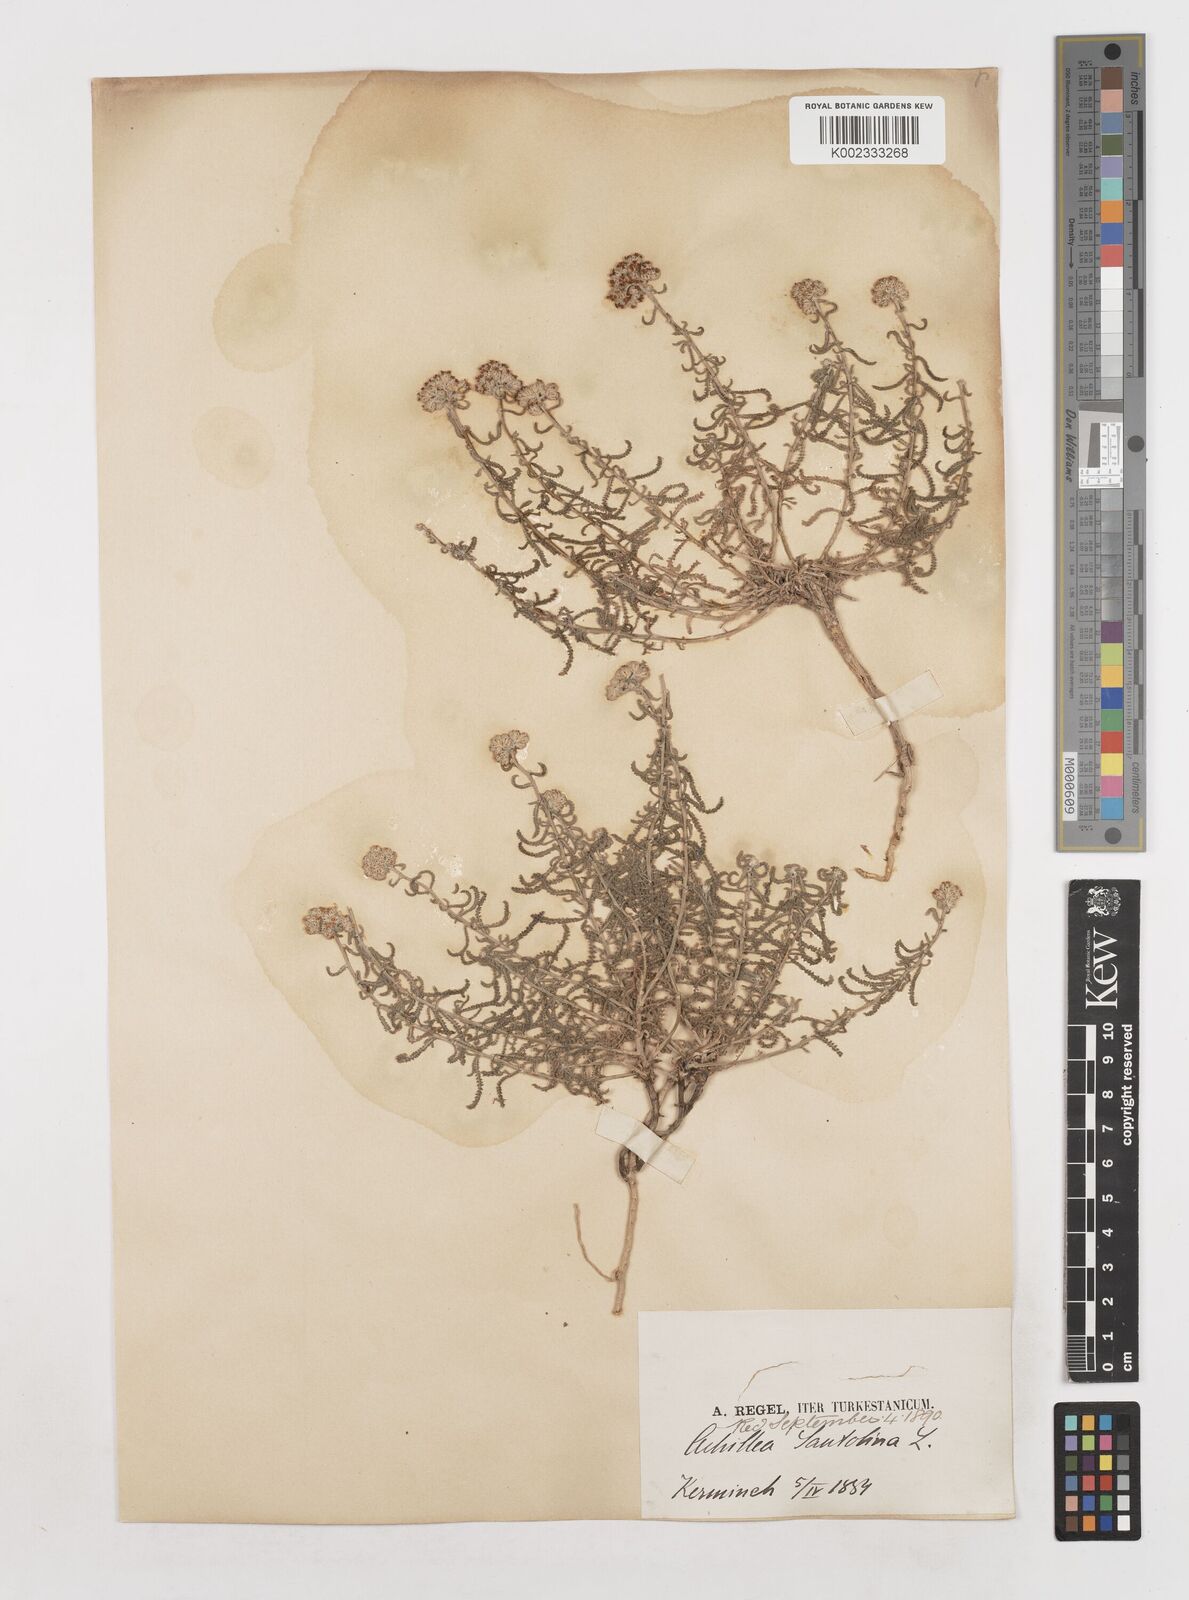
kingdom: Plantae
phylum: Tracheophyta
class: Magnoliopsida
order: Asterales
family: Asteraceae
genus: Achillea
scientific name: Achillea tenuifolia
